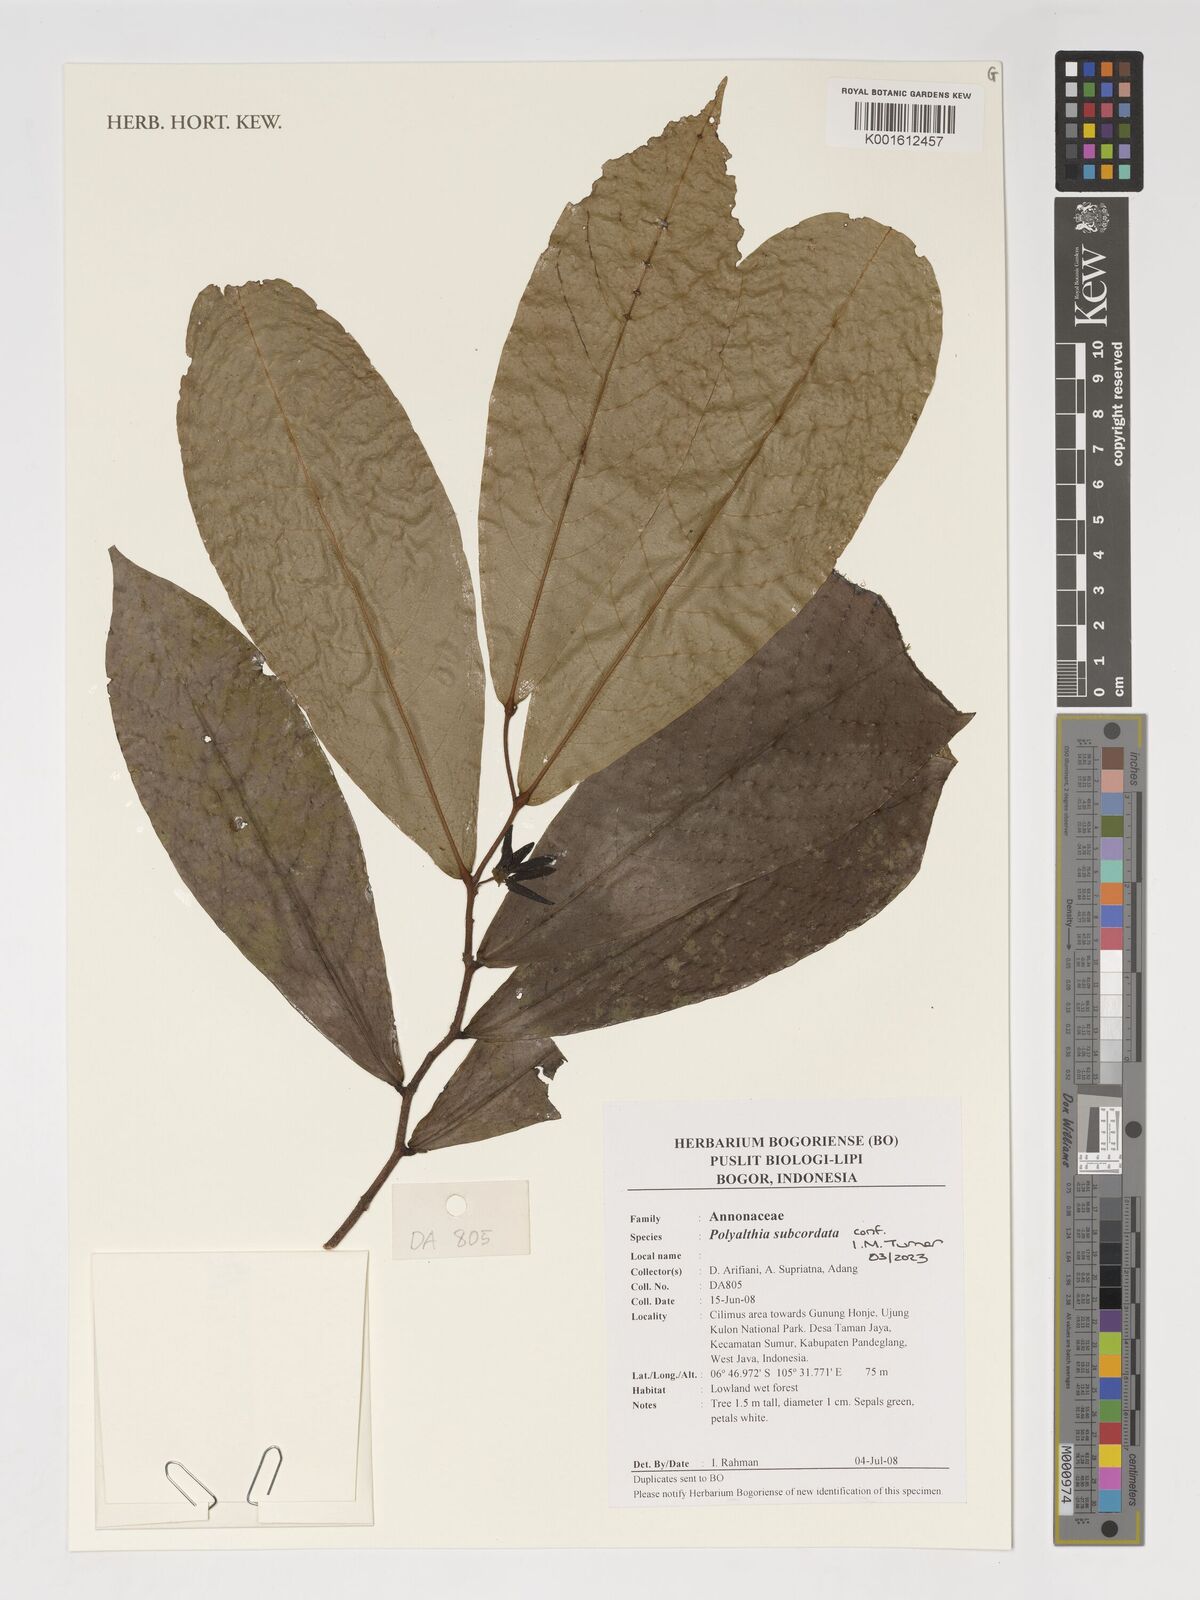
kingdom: Plantae
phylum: Tracheophyta
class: Magnoliopsida
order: Magnoliales
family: Annonaceae
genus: Polyalthia
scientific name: Polyalthia subcordata
